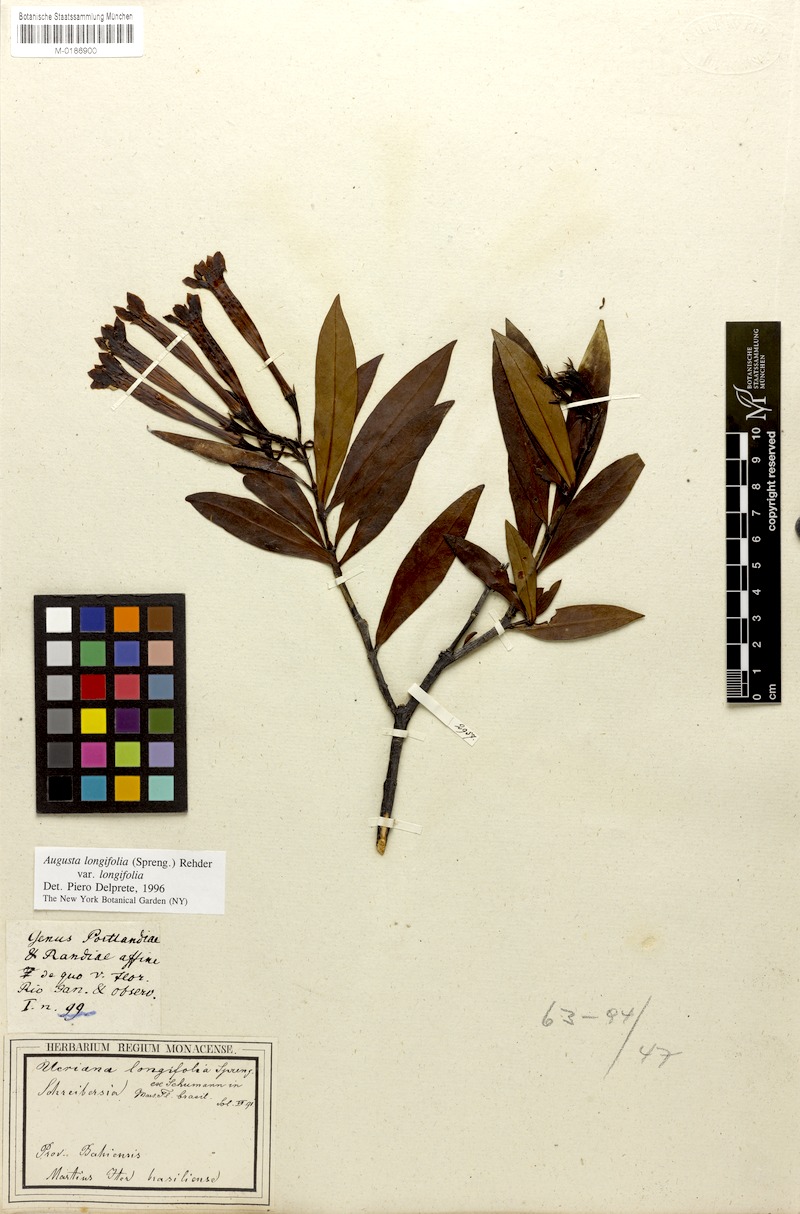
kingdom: Plantae
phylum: Tracheophyta
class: Magnoliopsida
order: Gentianales
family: Rubiaceae
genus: Augusta
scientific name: Augusta longifolia
